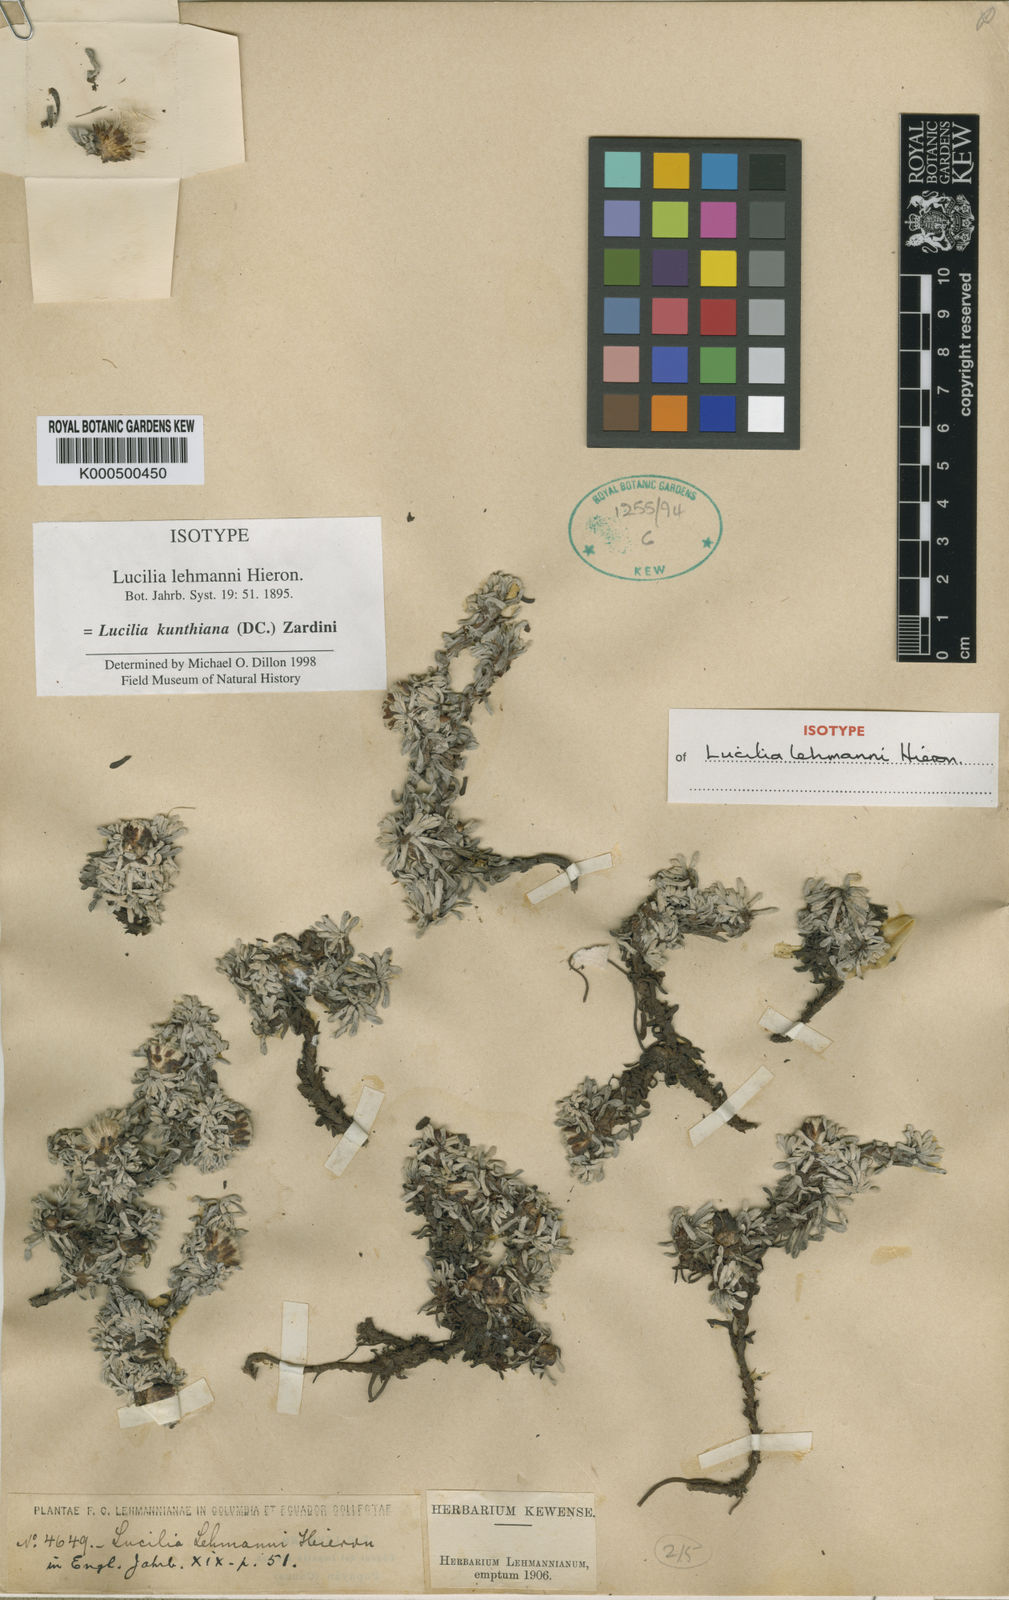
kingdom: Plantae
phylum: Tracheophyta
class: Magnoliopsida
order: Asterales
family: Asteraceae
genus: Mniodes
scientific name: Mniodes kunthiana
